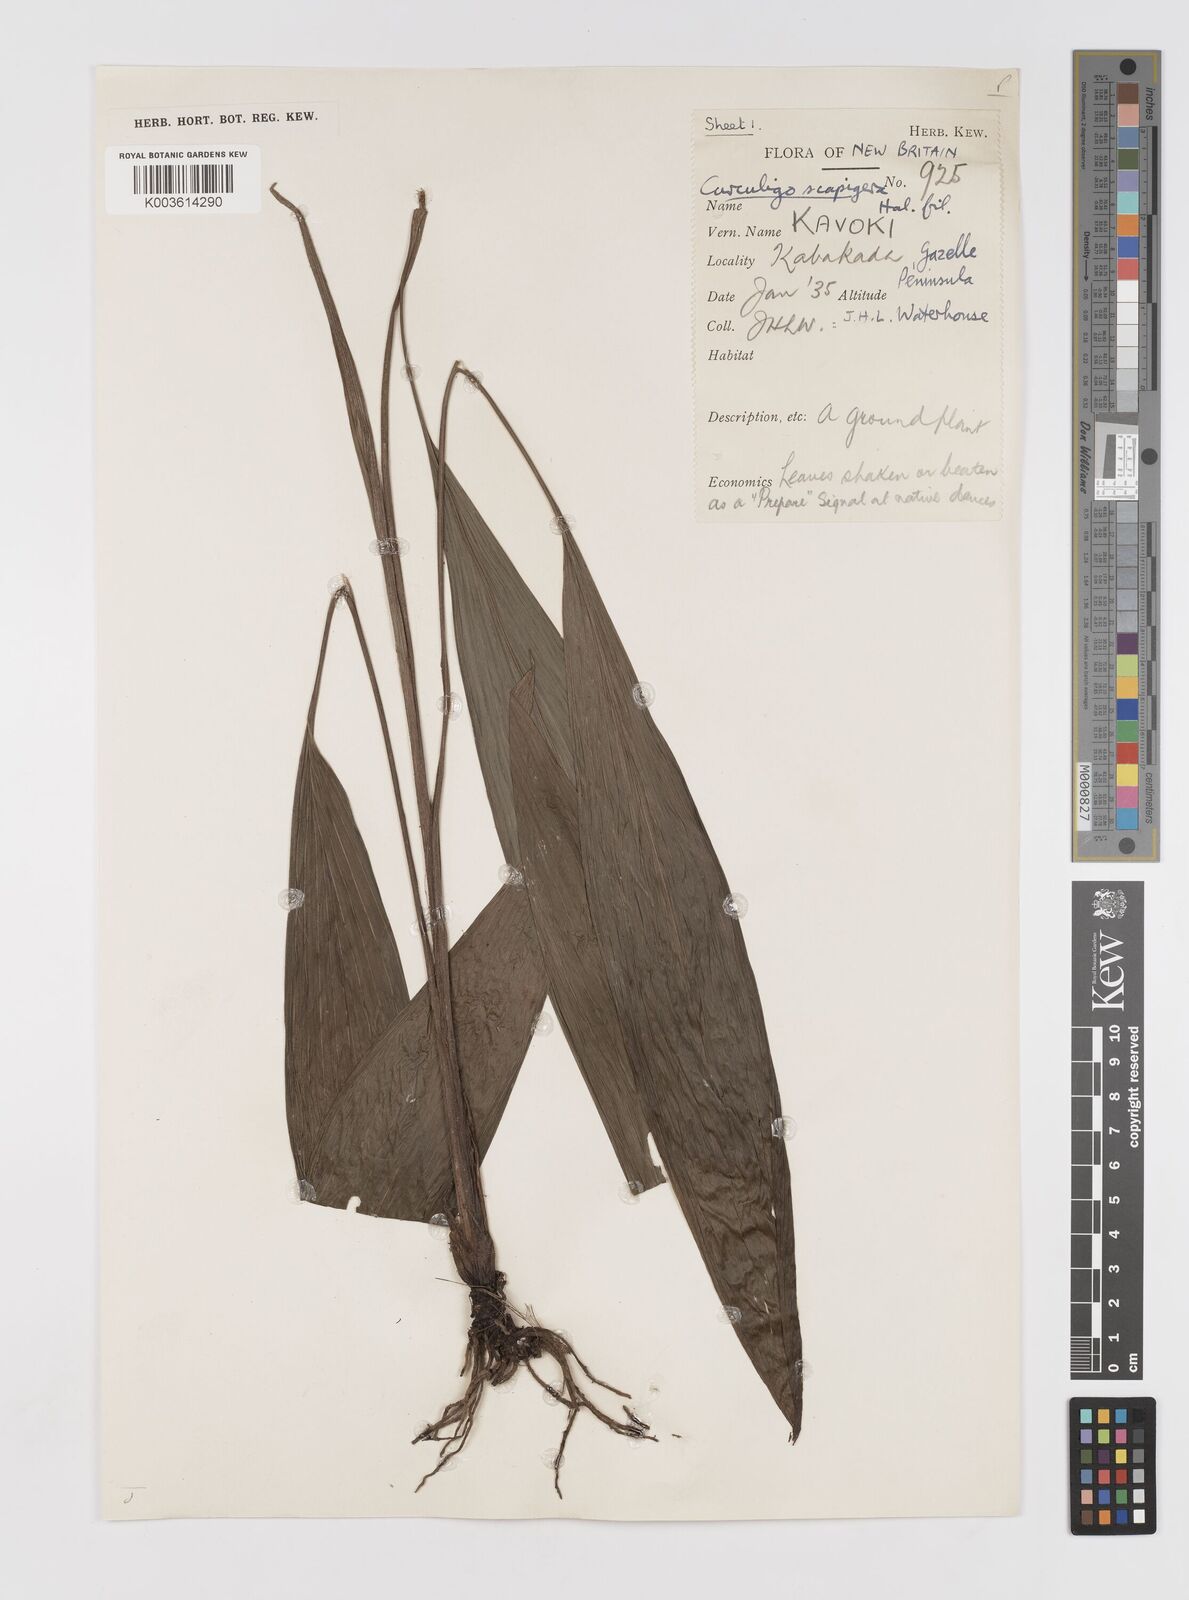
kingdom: Plantae
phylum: Tracheophyta
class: Liliopsida
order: Asparagales
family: Hypoxidaceae
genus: Curculigo
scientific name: Curculigo erecta
